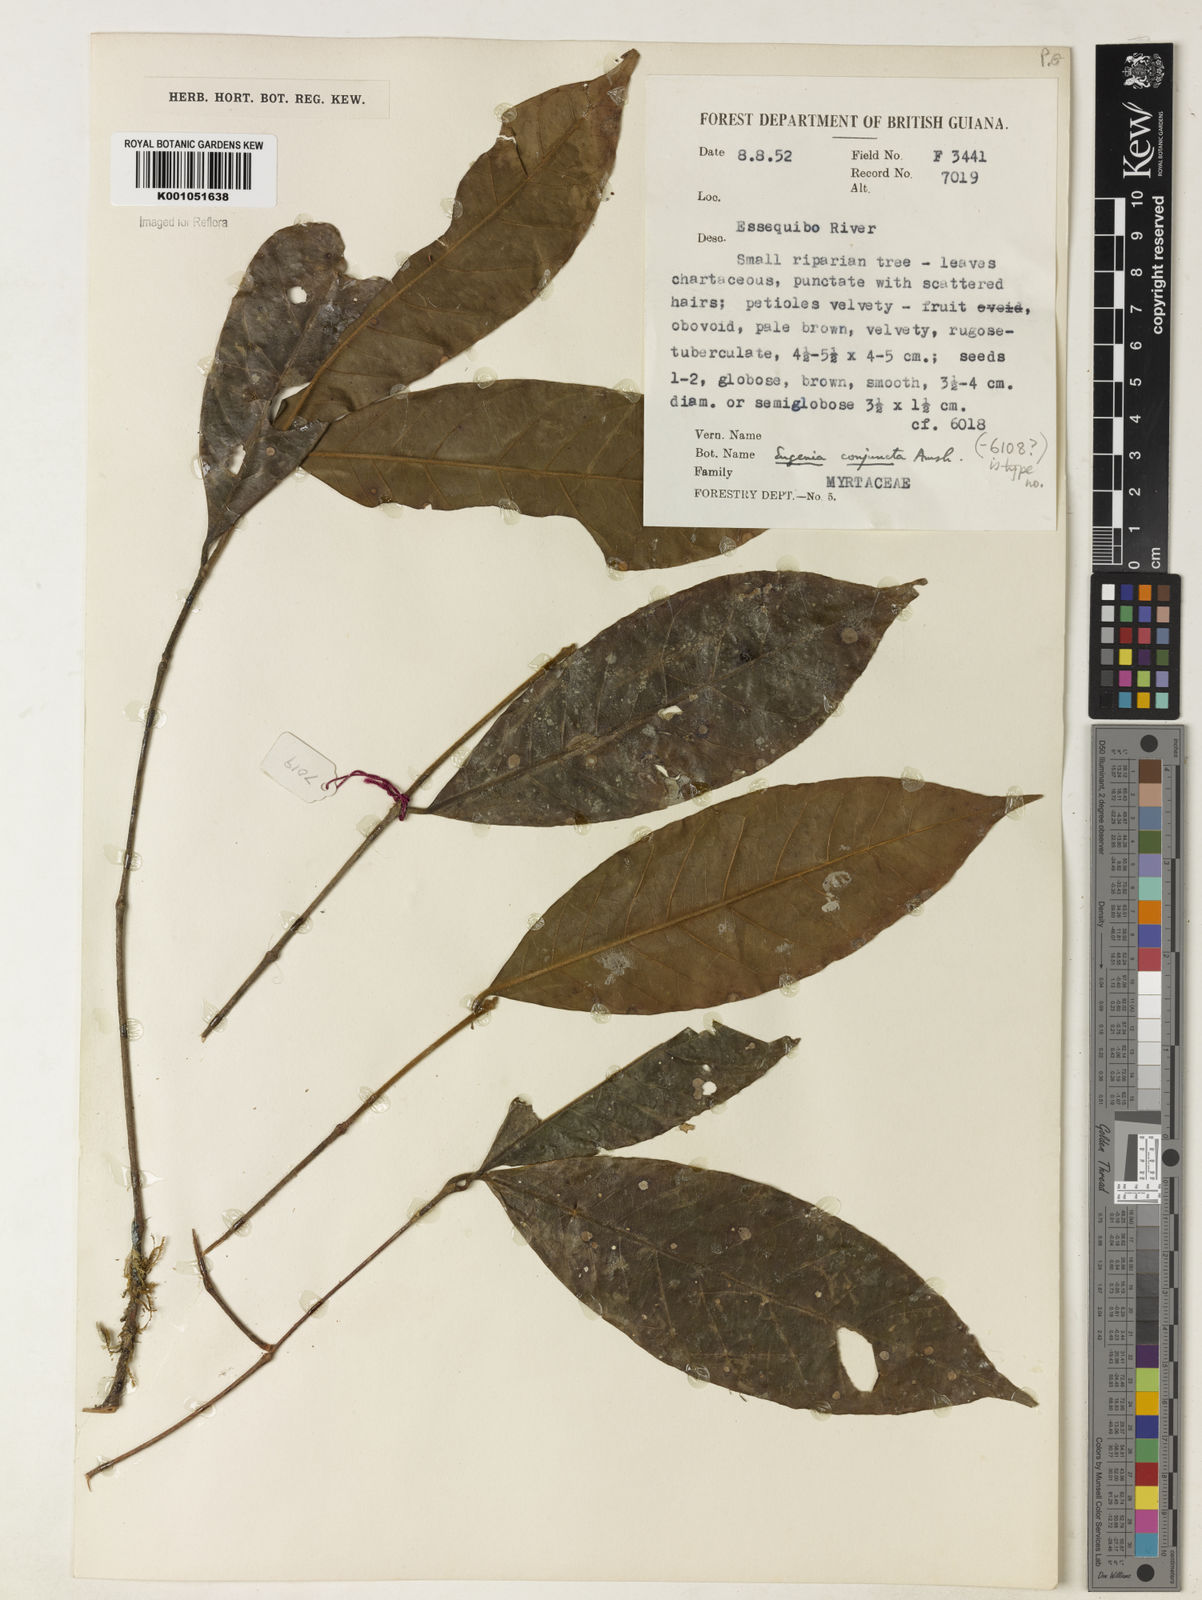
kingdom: Plantae
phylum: Tracheophyta
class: Magnoliopsida
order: Myrtales
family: Myrtaceae
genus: Eugenia
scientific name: Eugenia conjuncta
